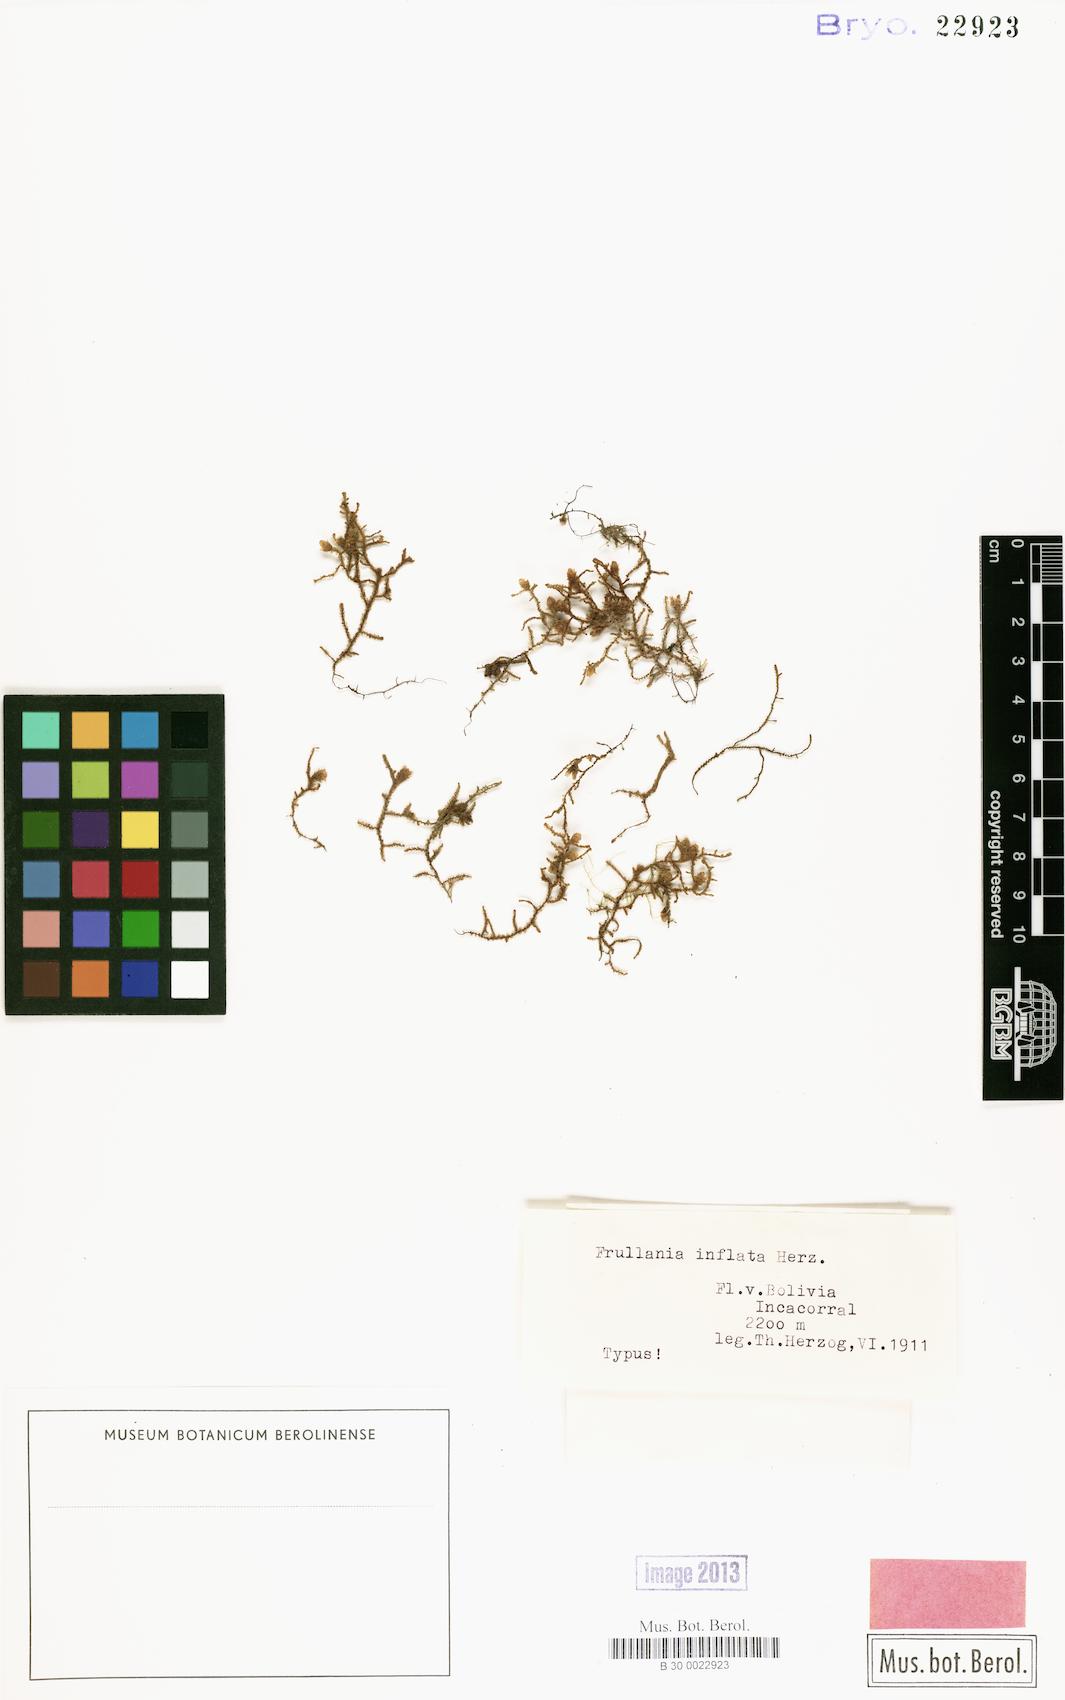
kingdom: Plantae
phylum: Marchantiophyta
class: Jungermanniopsida
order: Porellales
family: Frullaniaceae
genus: Frullania
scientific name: Frullania inflata
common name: Inflated scalewort
